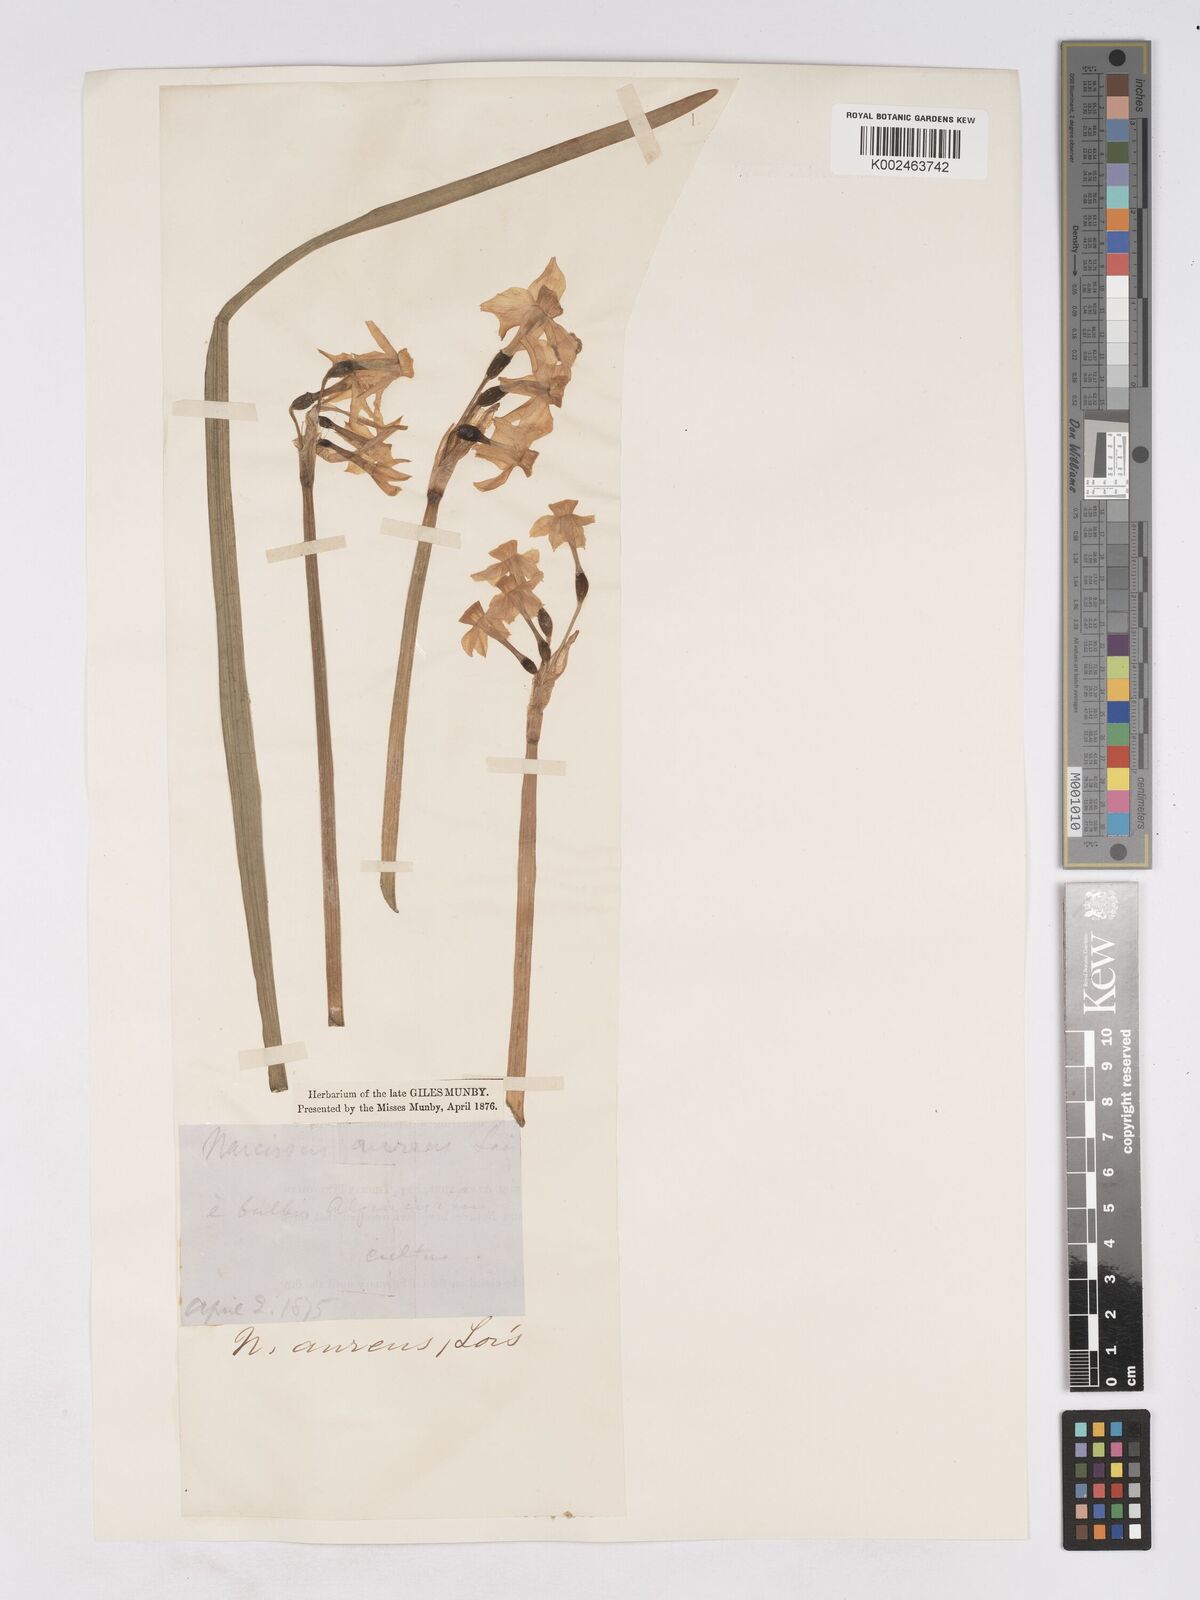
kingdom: Plantae
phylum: Tracheophyta
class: Liliopsida
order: Asparagales
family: Amaryllidaceae
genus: Narcissus
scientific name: Narcissus
